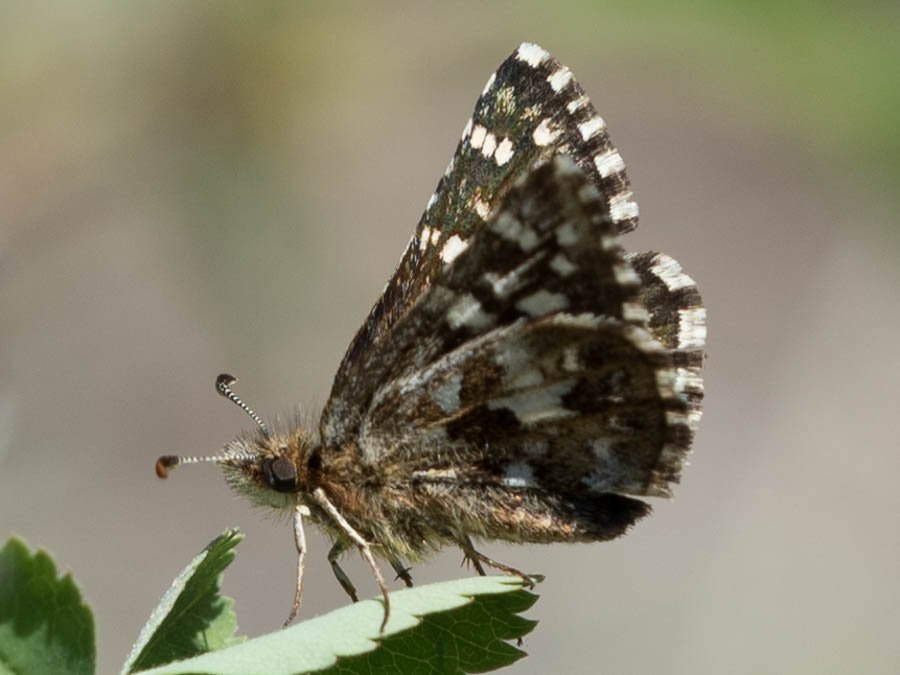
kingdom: Animalia
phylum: Arthropoda
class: Insecta
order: Lepidoptera
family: Hesperiidae
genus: Pyrgus
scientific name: Pyrgus ruralis
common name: Two-banded Checkered-Skipper
